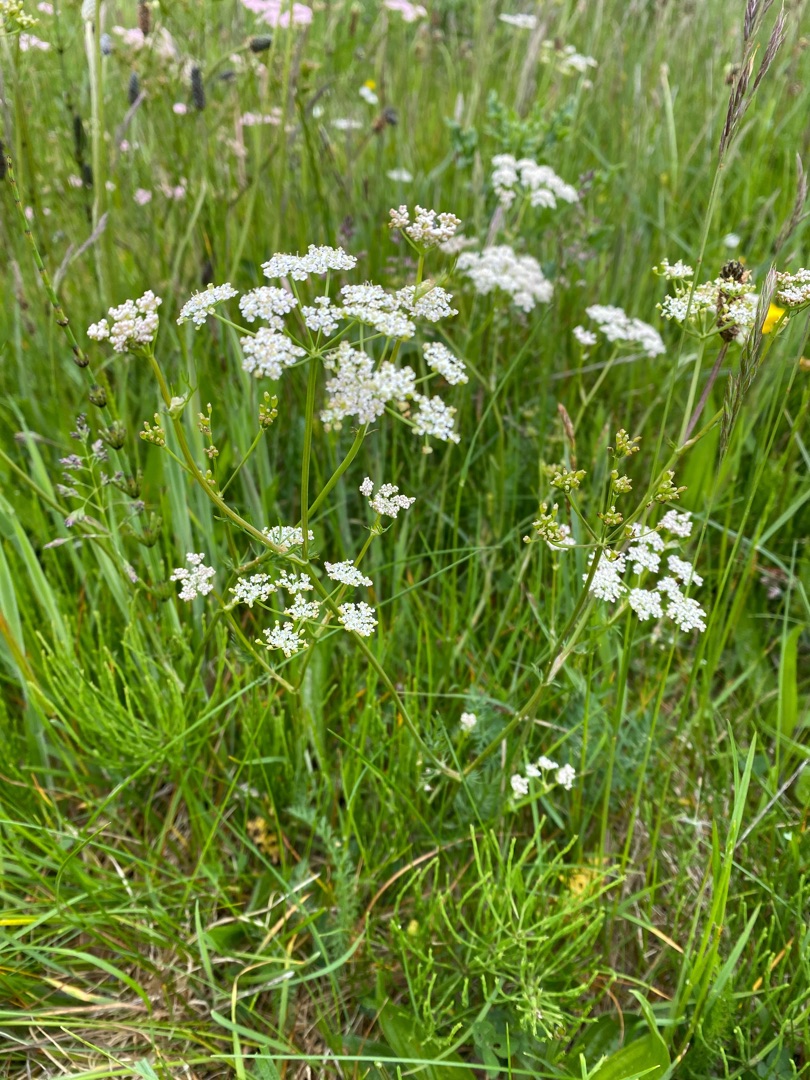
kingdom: Plantae
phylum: Tracheophyta
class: Magnoliopsida
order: Apiales
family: Apiaceae
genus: Carum
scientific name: Carum carvi
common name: Kommen
